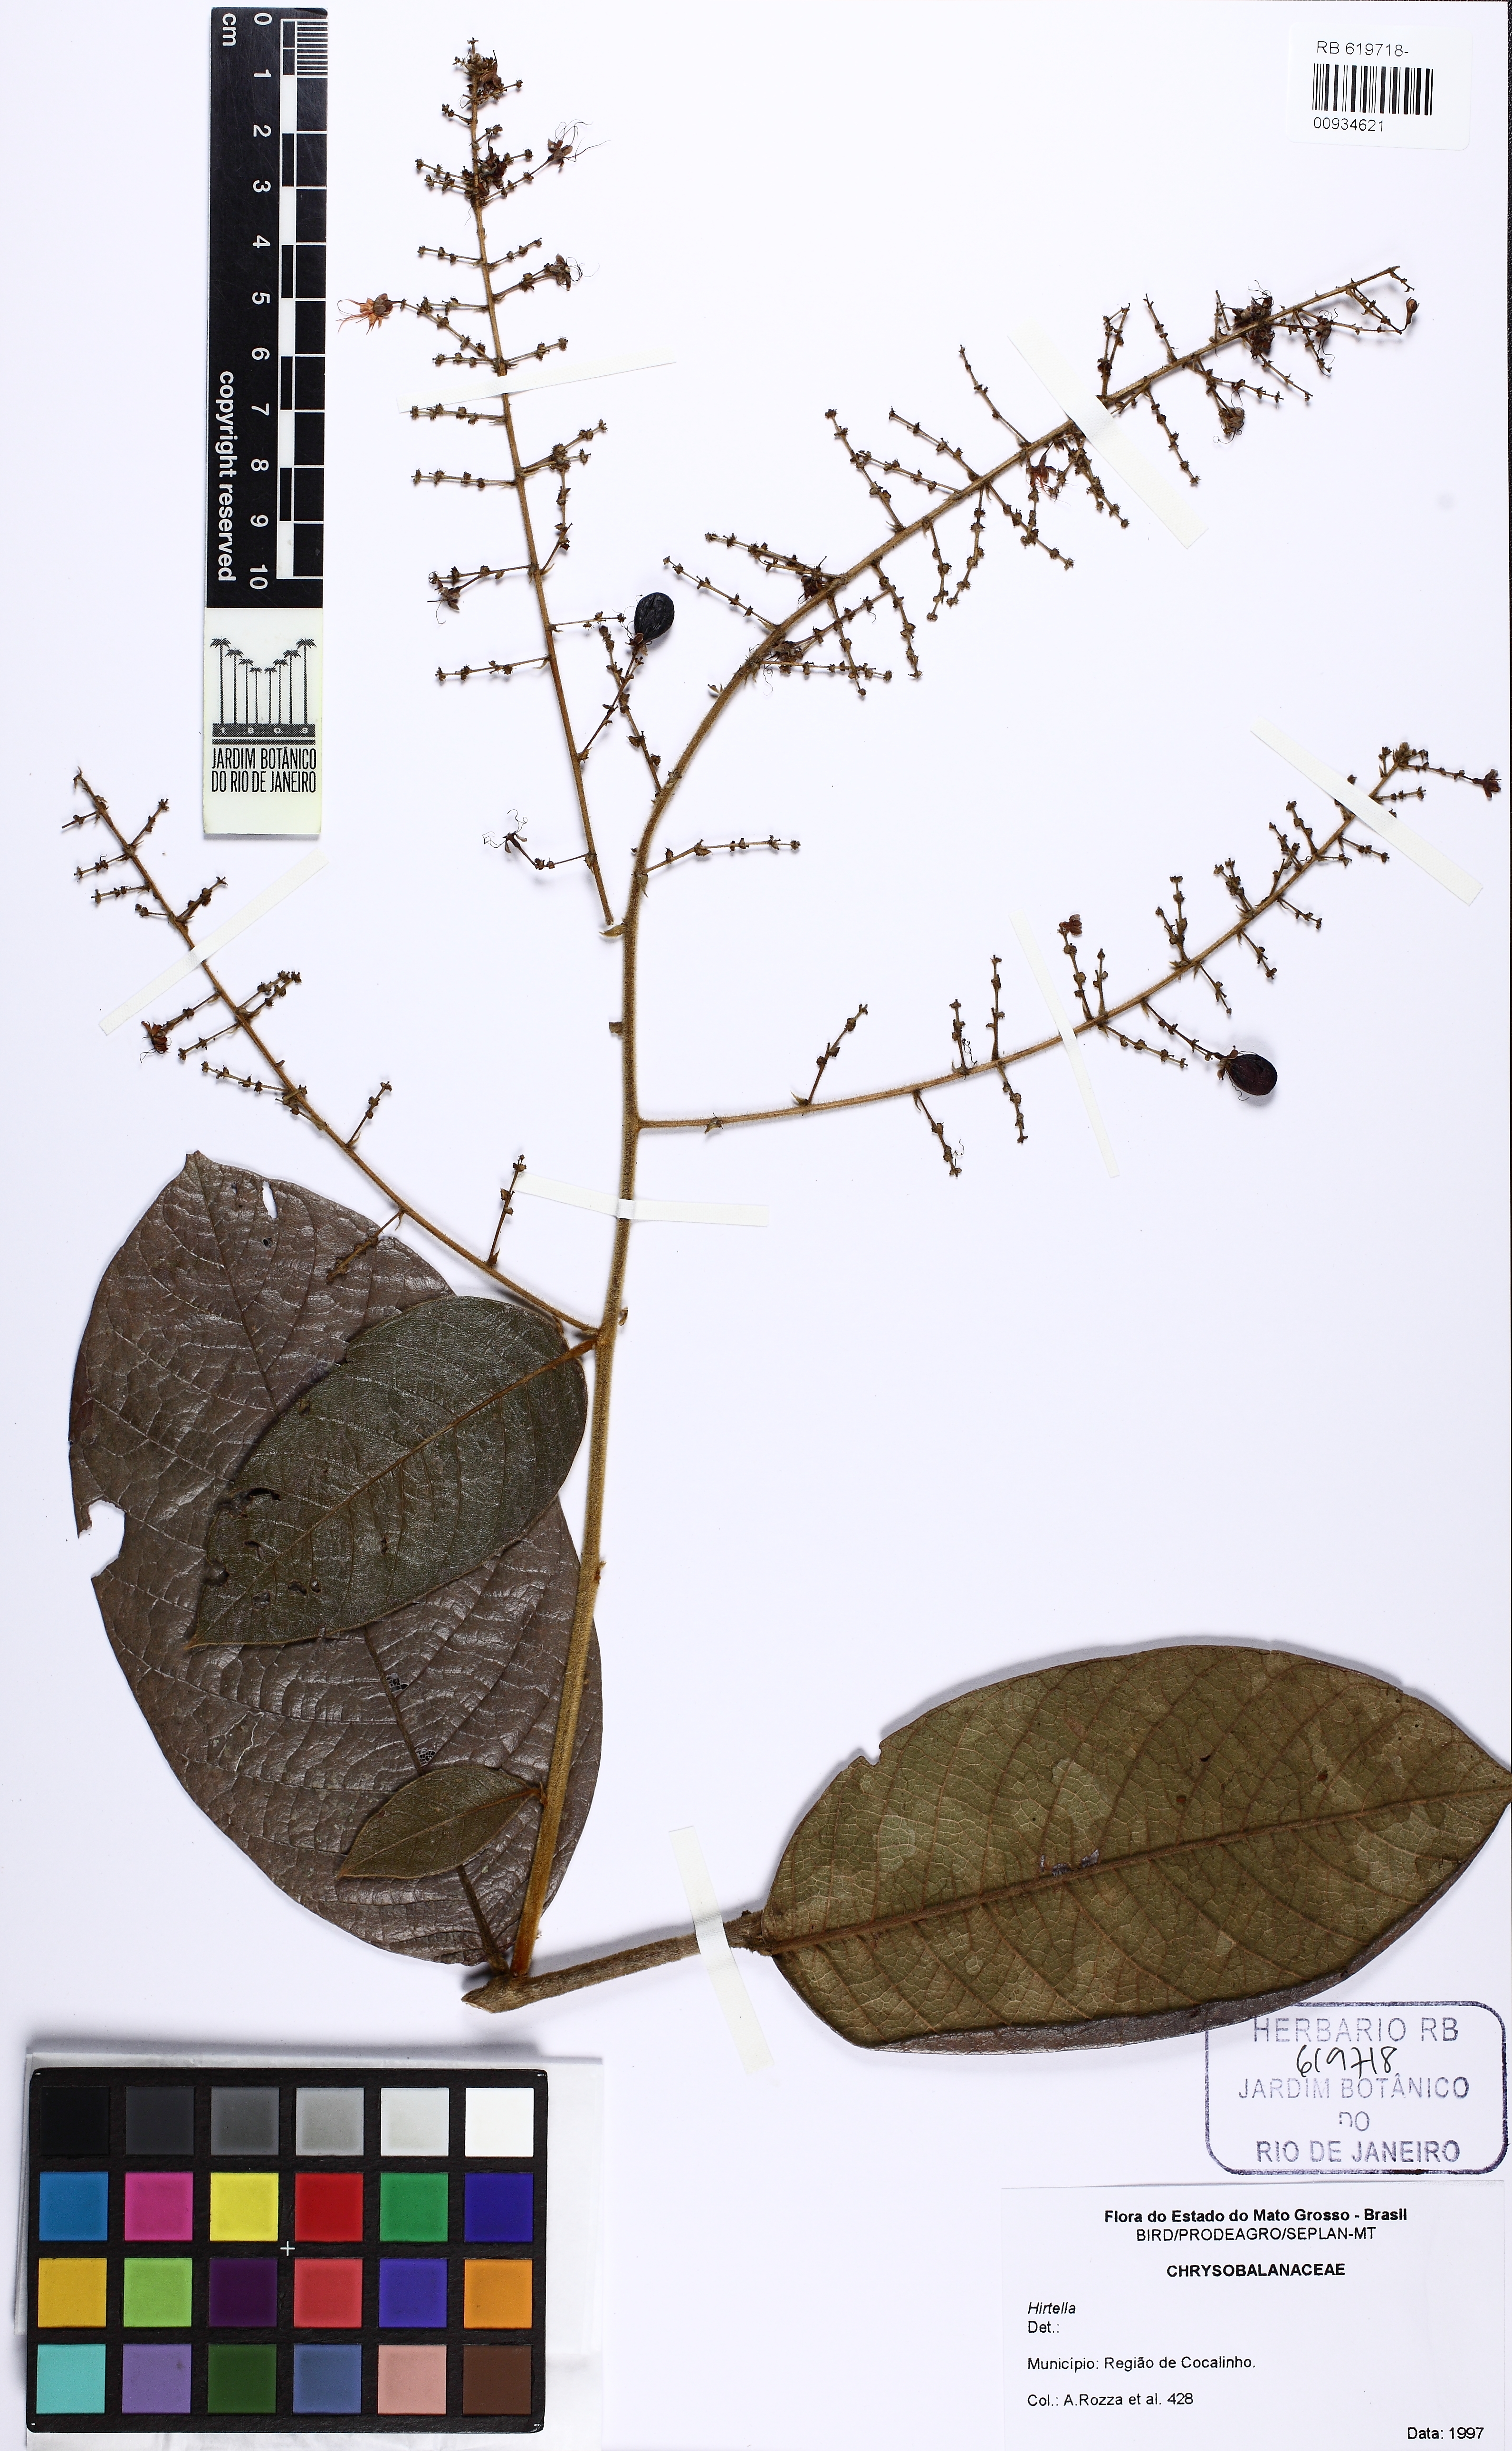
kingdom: Plantae
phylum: Tracheophyta
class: Magnoliopsida
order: Malpighiales
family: Chrysobalanaceae
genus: Hirtella
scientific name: Hirtella glandulosa
